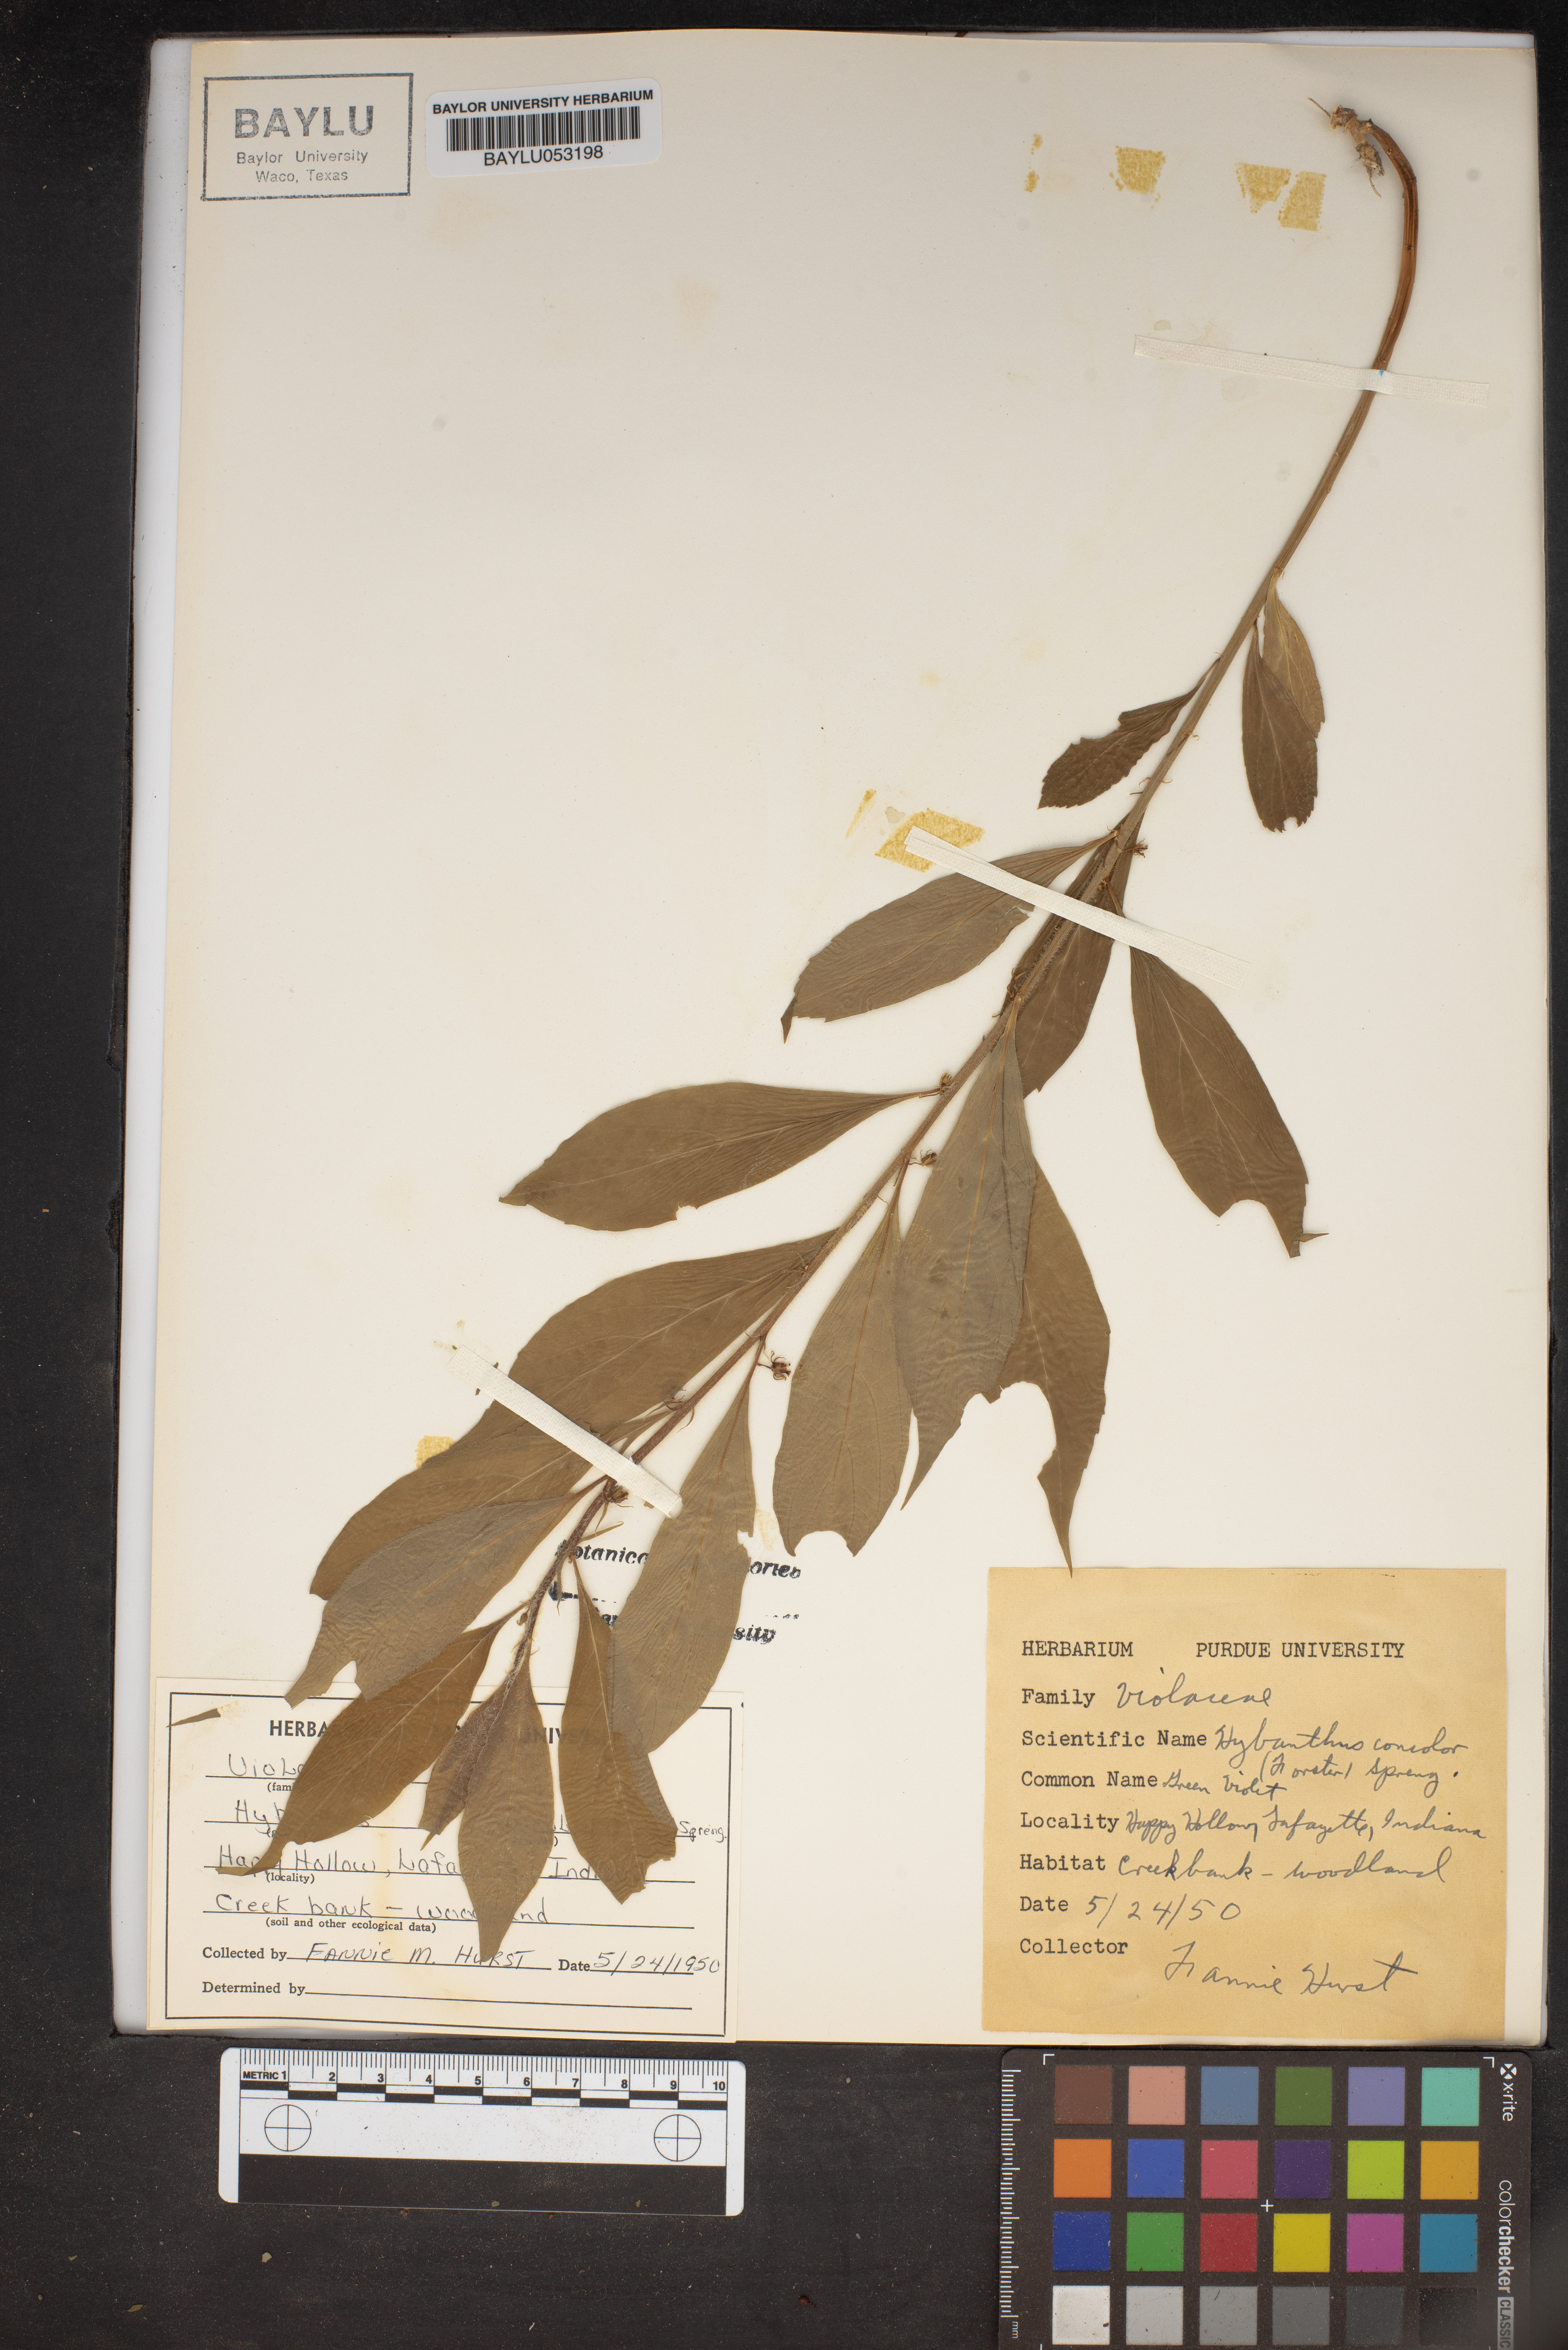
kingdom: Plantae
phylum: Tracheophyta
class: Magnoliopsida
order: Malpighiales
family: Violaceae
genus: Cubelium
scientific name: Cubelium concolor
